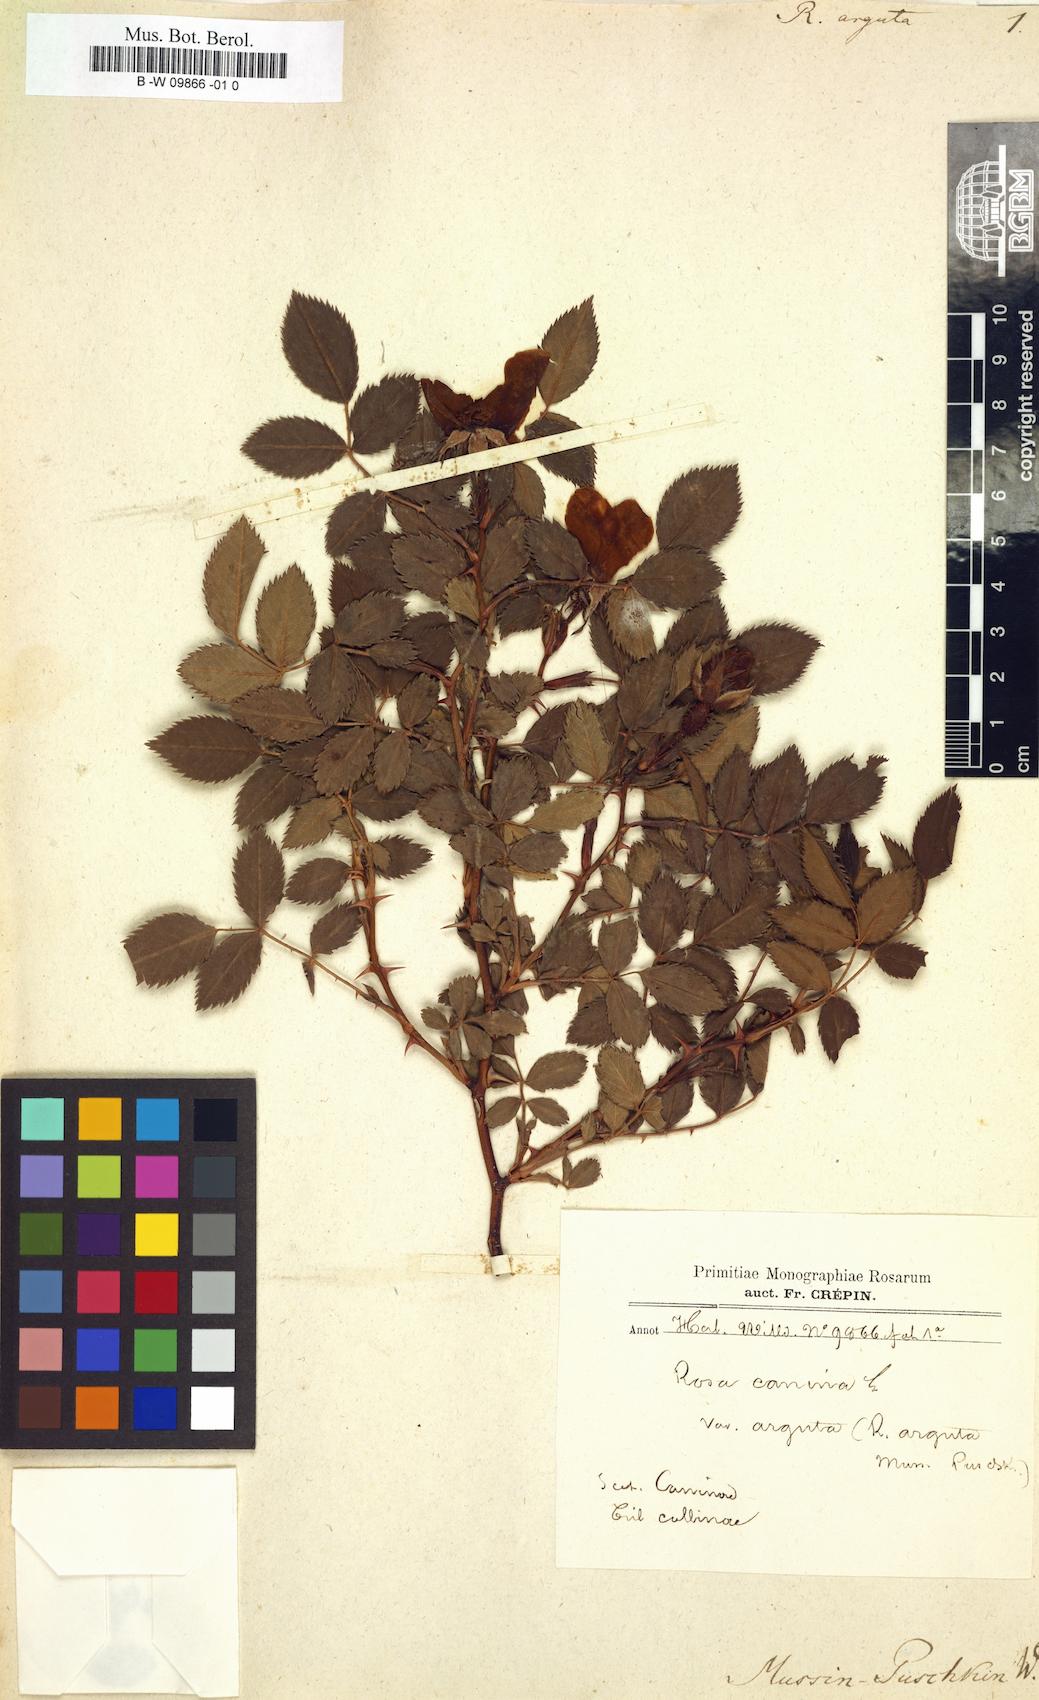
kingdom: Plantae
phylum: Tracheophyta
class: Magnoliopsida
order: Rosales
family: Rosaceae
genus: Rosa
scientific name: Rosa
